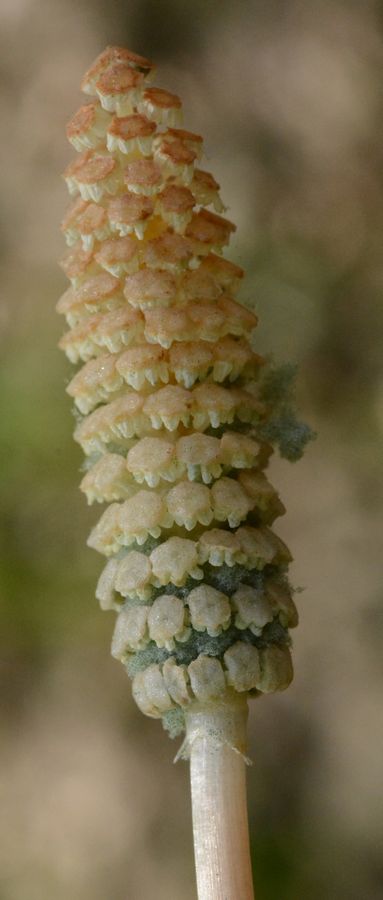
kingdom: Plantae
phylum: Tracheophyta
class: Polypodiopsida
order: Equisetales
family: Equisetaceae
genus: Equisetum
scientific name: Equisetum arvense
